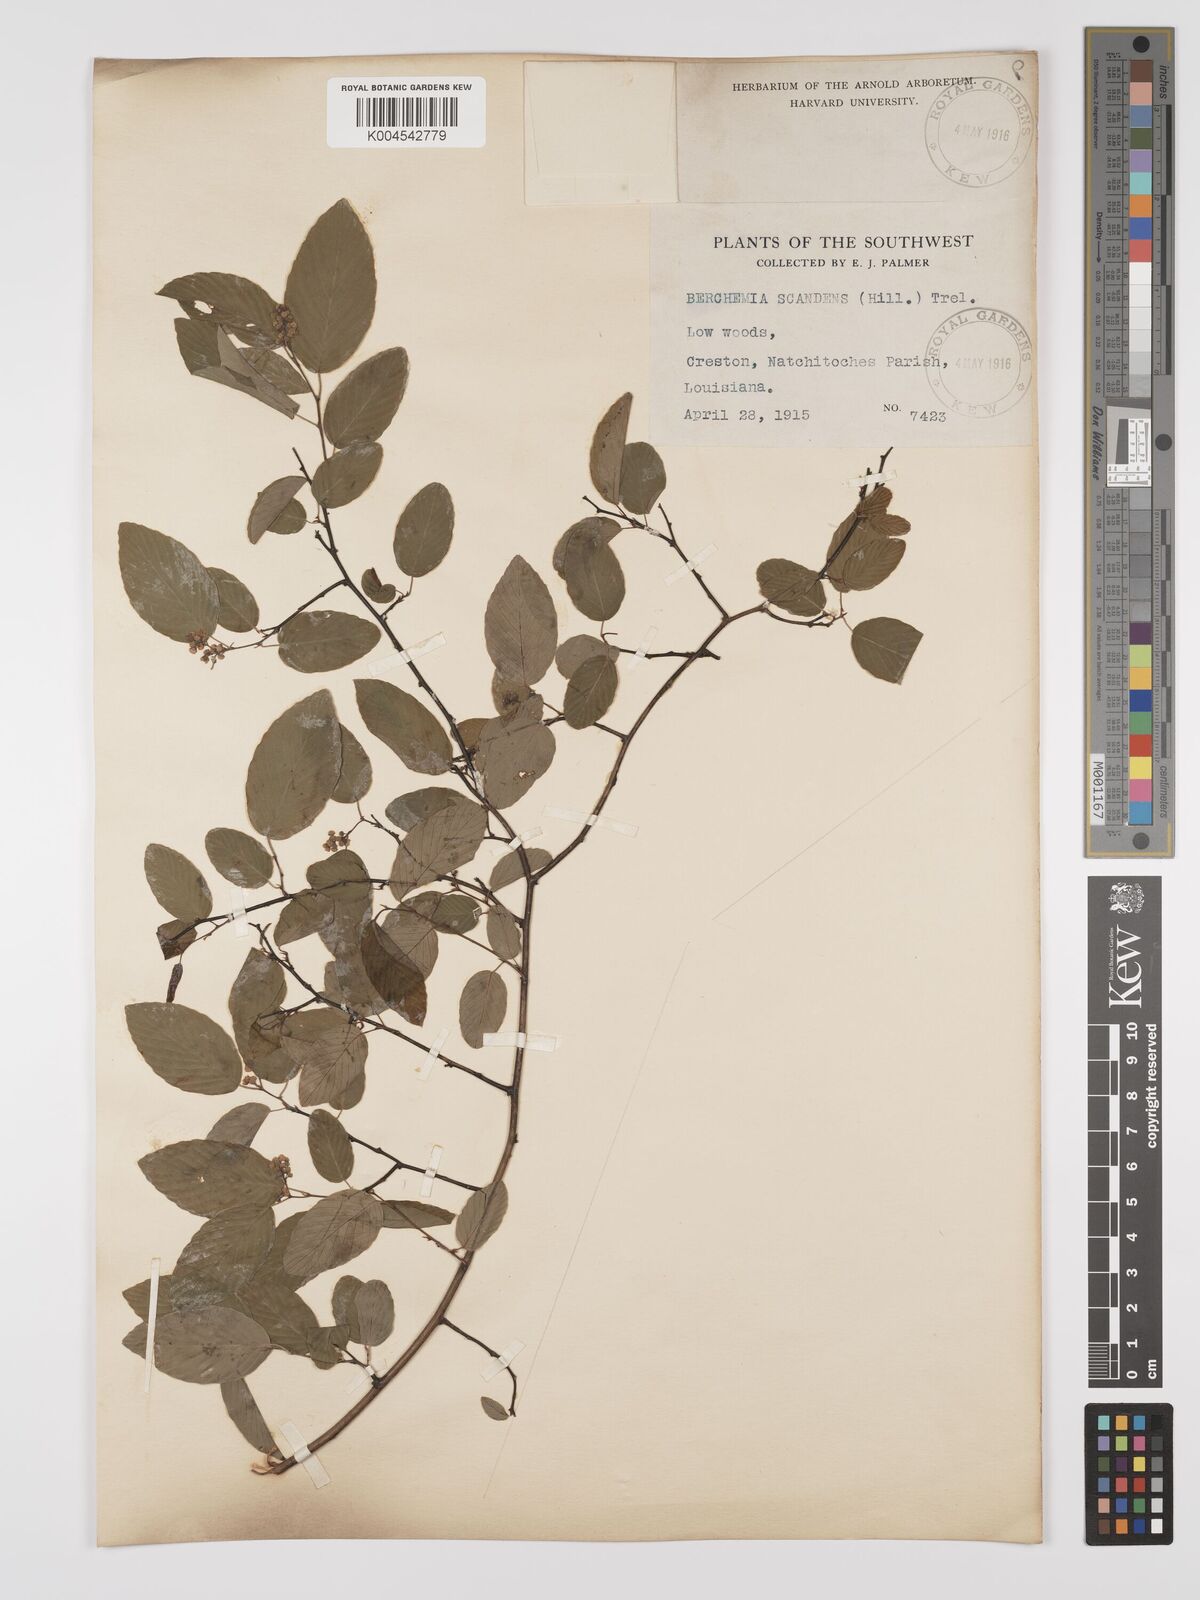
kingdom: Plantae
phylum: Tracheophyta
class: Magnoliopsida
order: Rosales
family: Rhamnaceae
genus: Berchemia
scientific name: Berchemia scandens
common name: Supplejack
